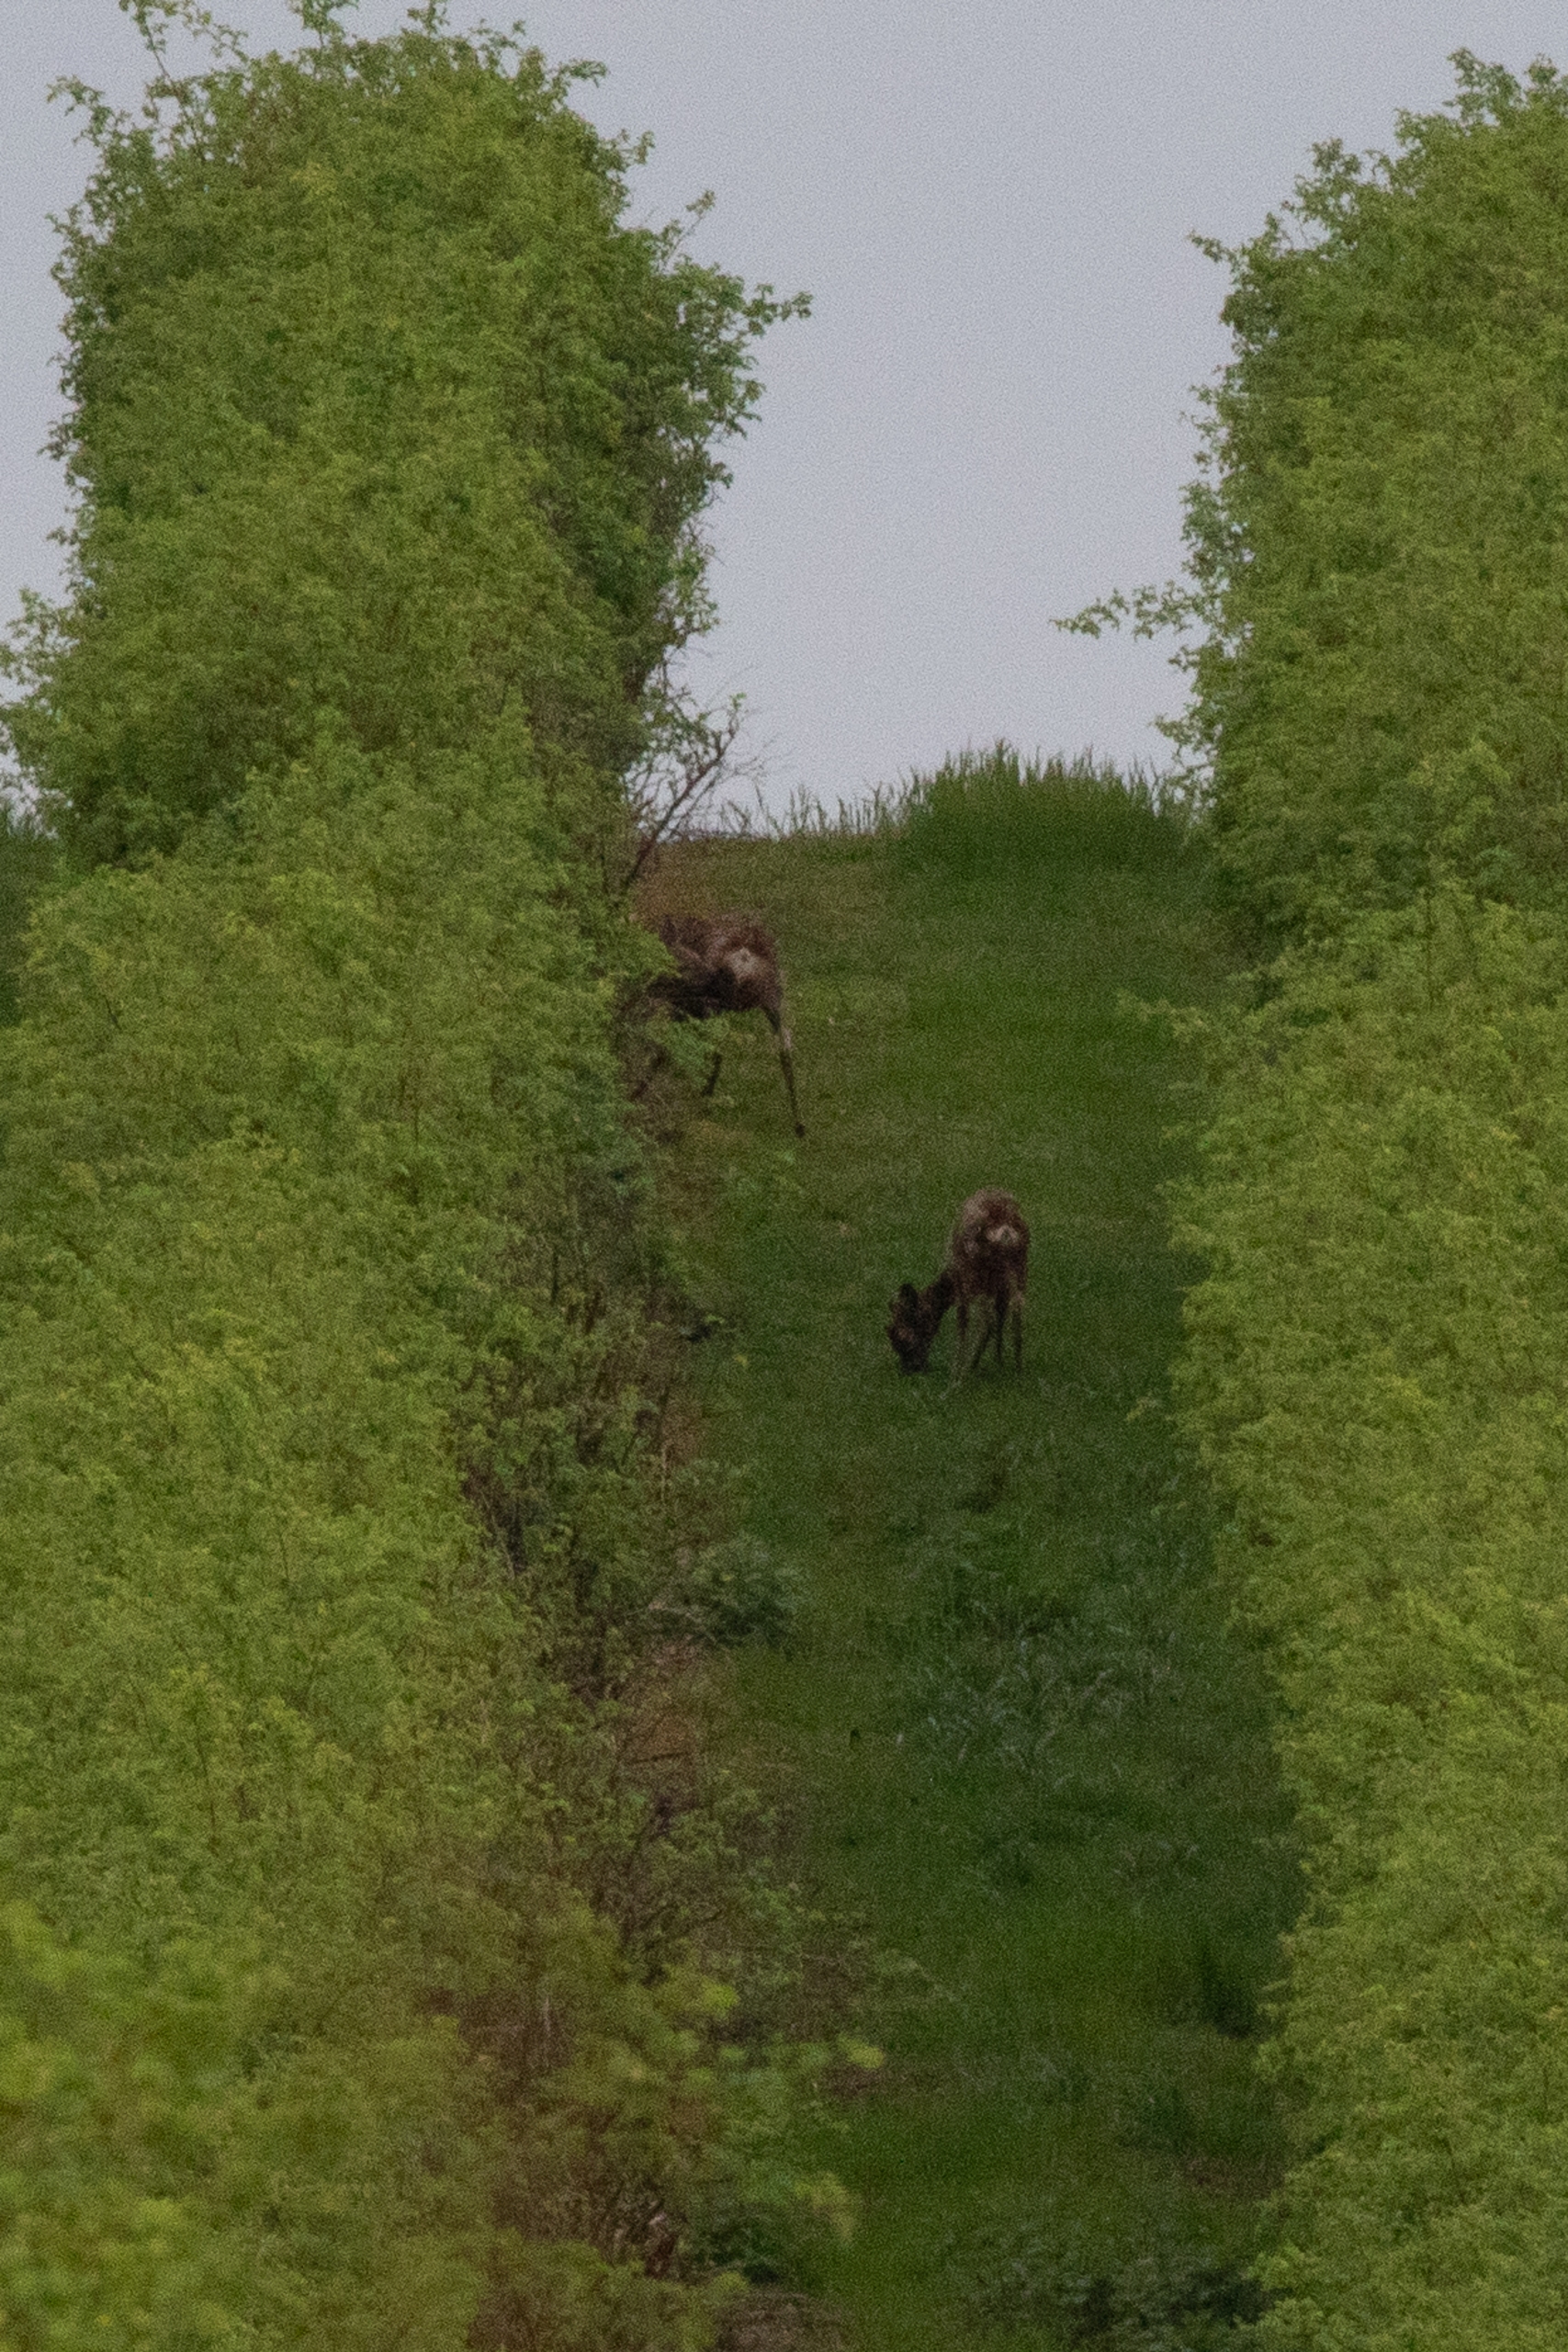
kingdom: Animalia
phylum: Chordata
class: Mammalia
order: Artiodactyla
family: Cervidae
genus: Capreolus
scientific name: Capreolus capreolus
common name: Rådyr
